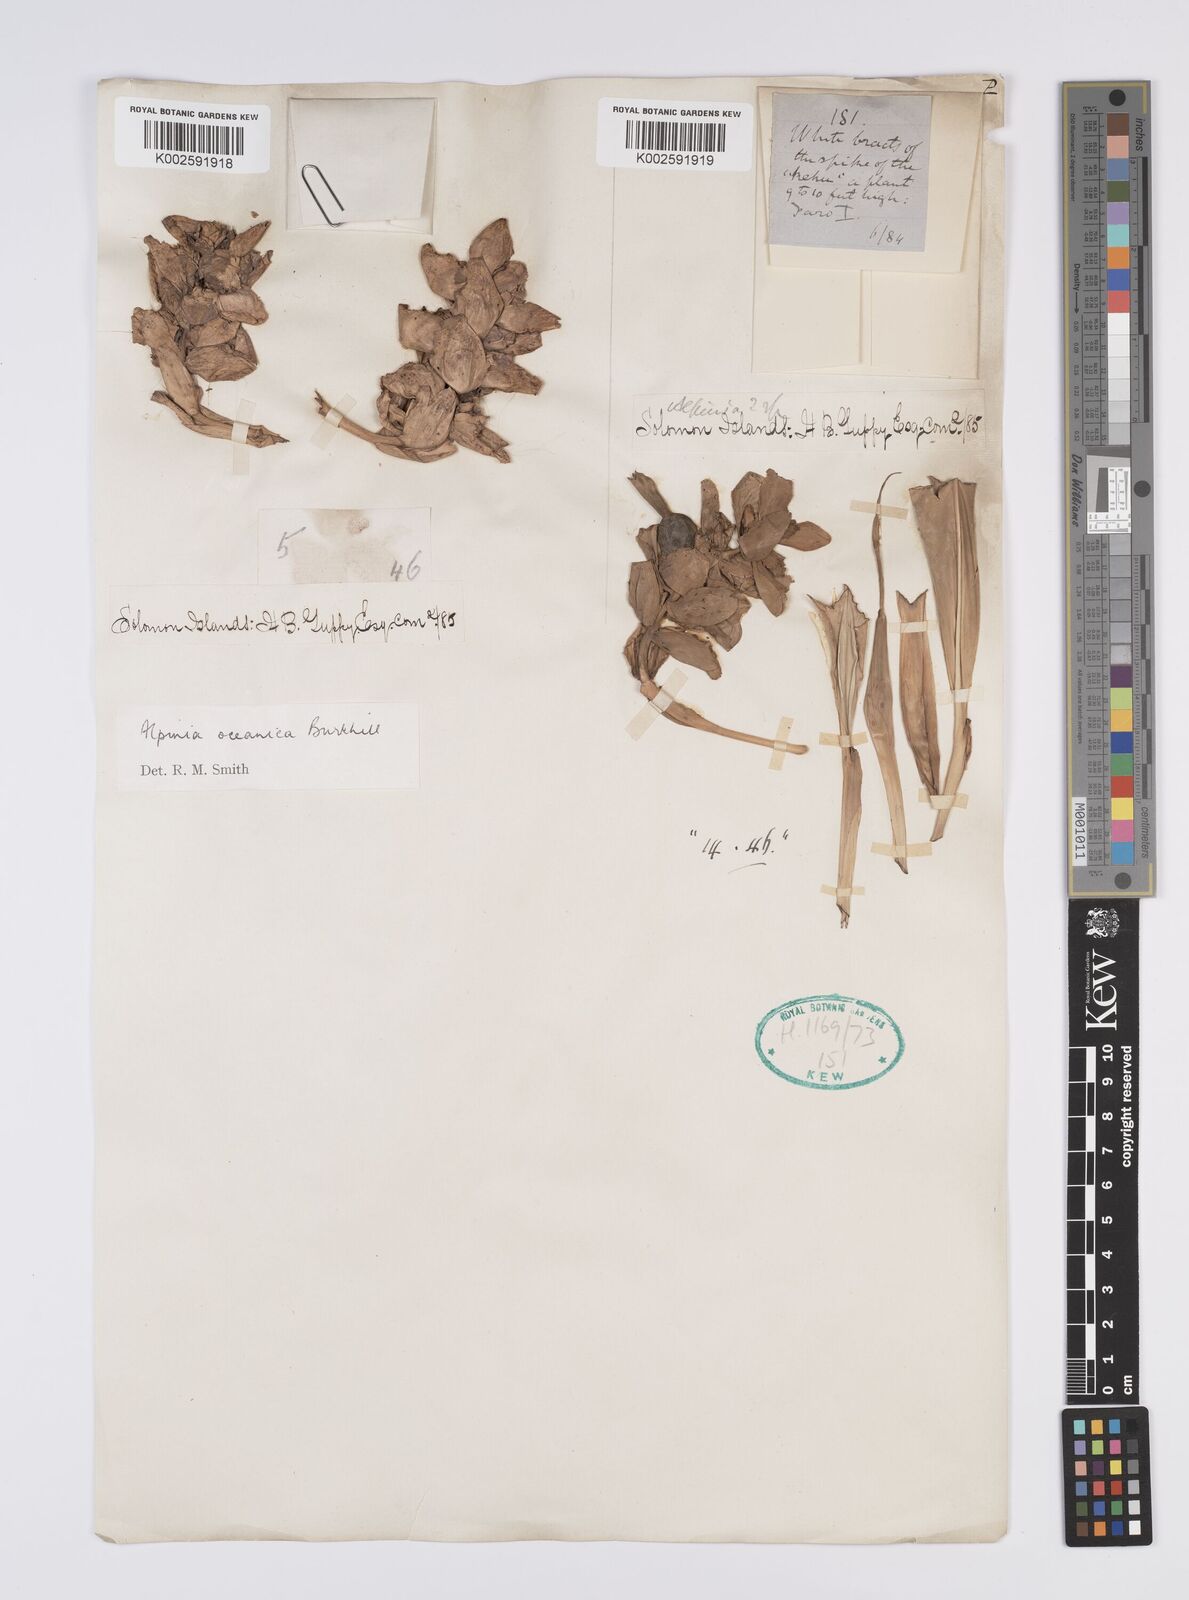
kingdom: Plantae
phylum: Tracheophyta
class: Liliopsida
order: Zingiberales
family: Zingiberaceae
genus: Alpinia
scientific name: Alpinia oceanica
